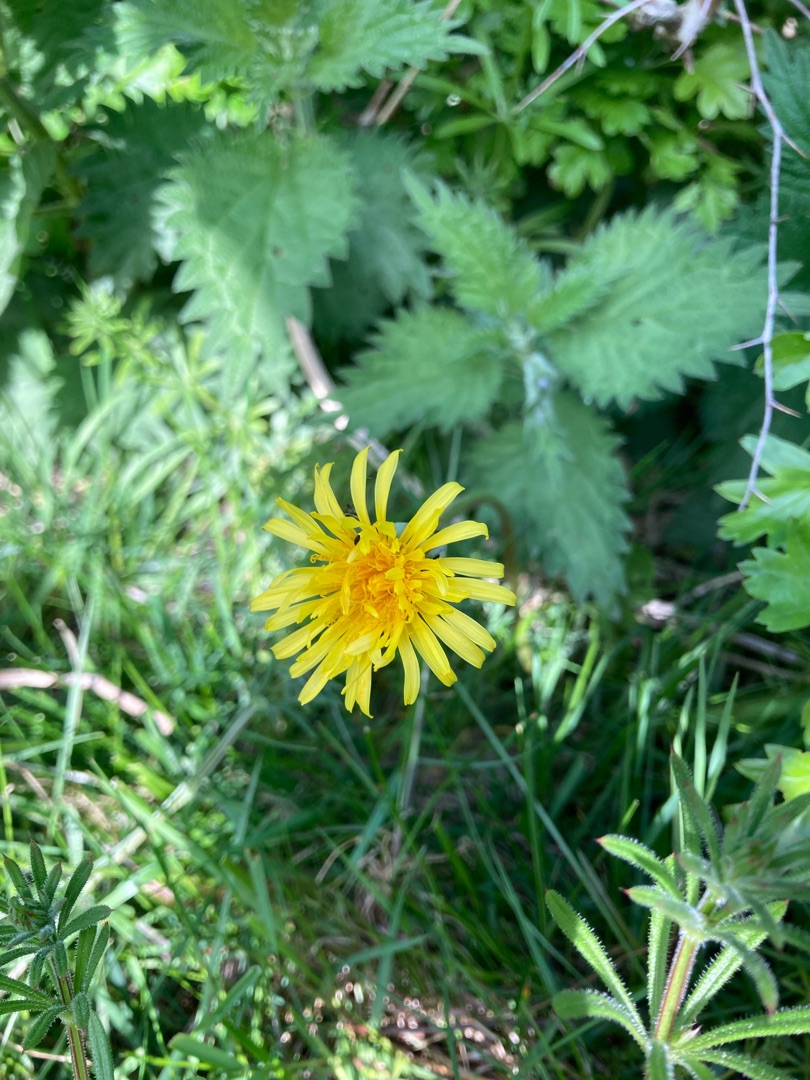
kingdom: Plantae
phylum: Tracheophyta
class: Magnoliopsida
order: Asterales
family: Asteraceae
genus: Taraxacum
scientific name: Taraxacum
